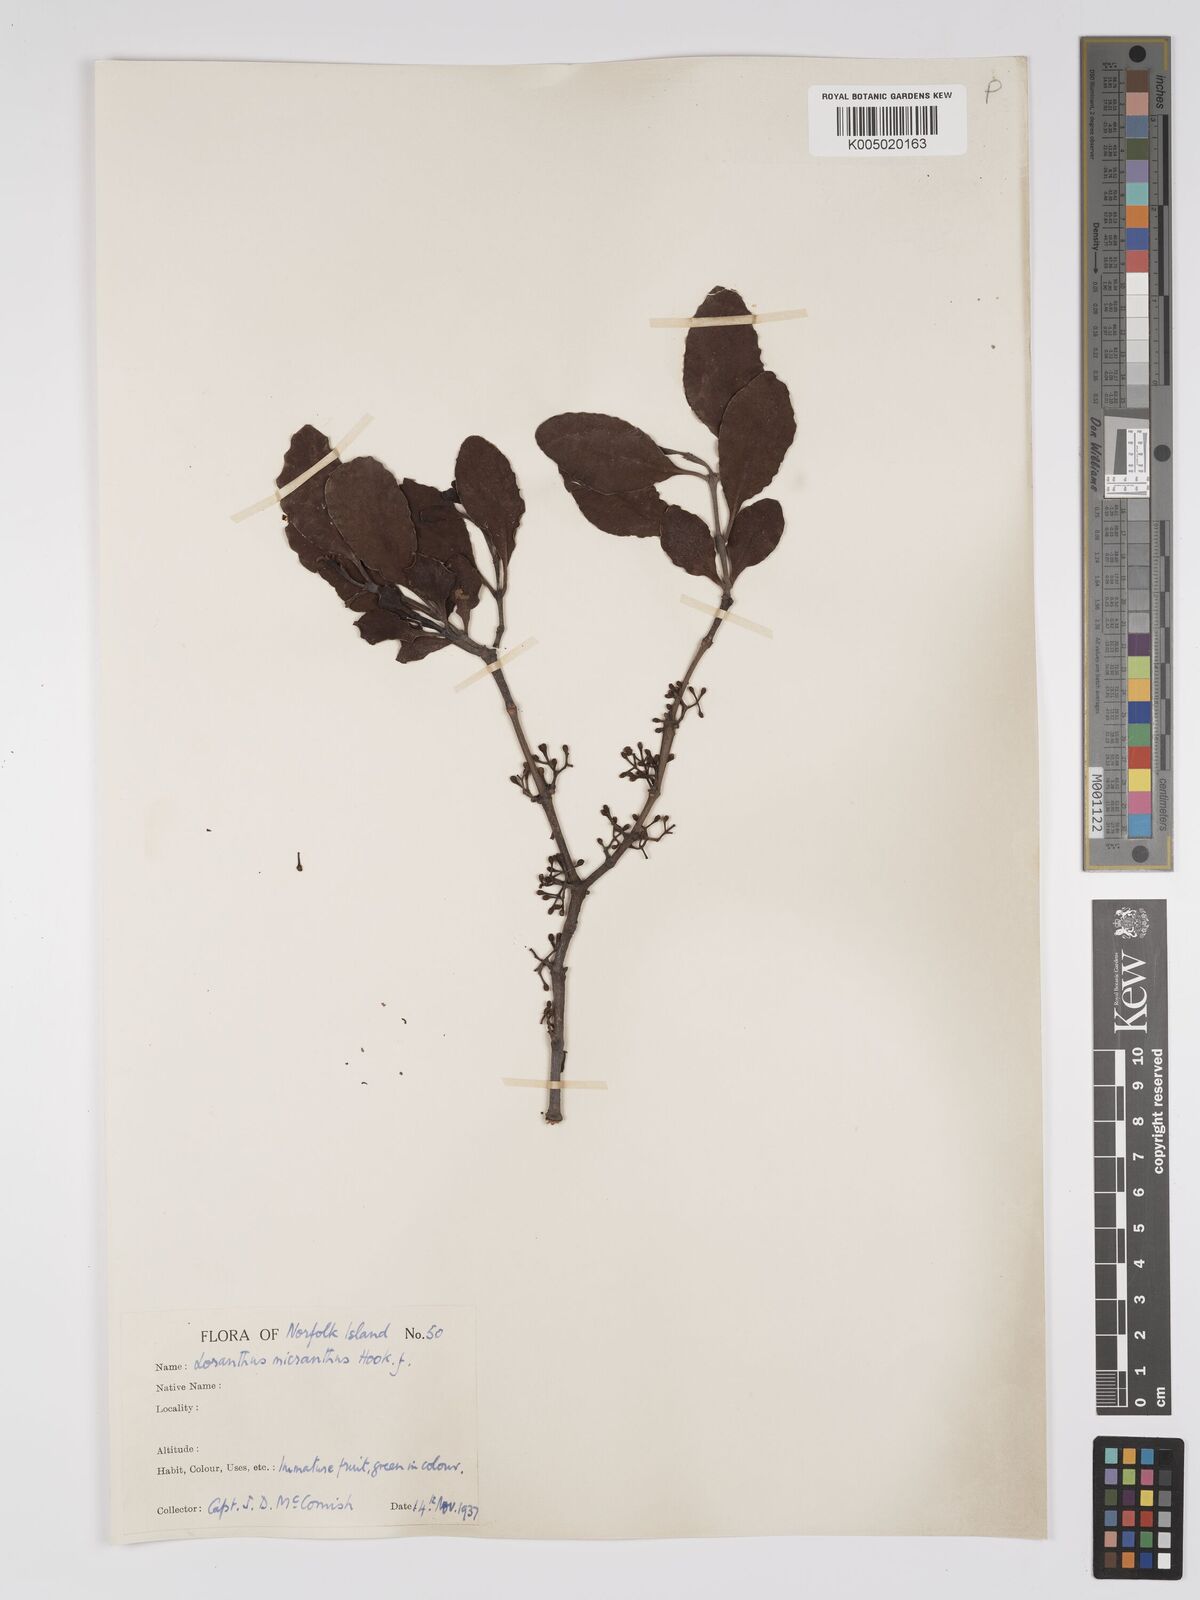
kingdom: Plantae
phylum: Tracheophyta
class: Magnoliopsida
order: Santalales
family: Loranthaceae
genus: Ileostylus
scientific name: Ileostylus micranthus
